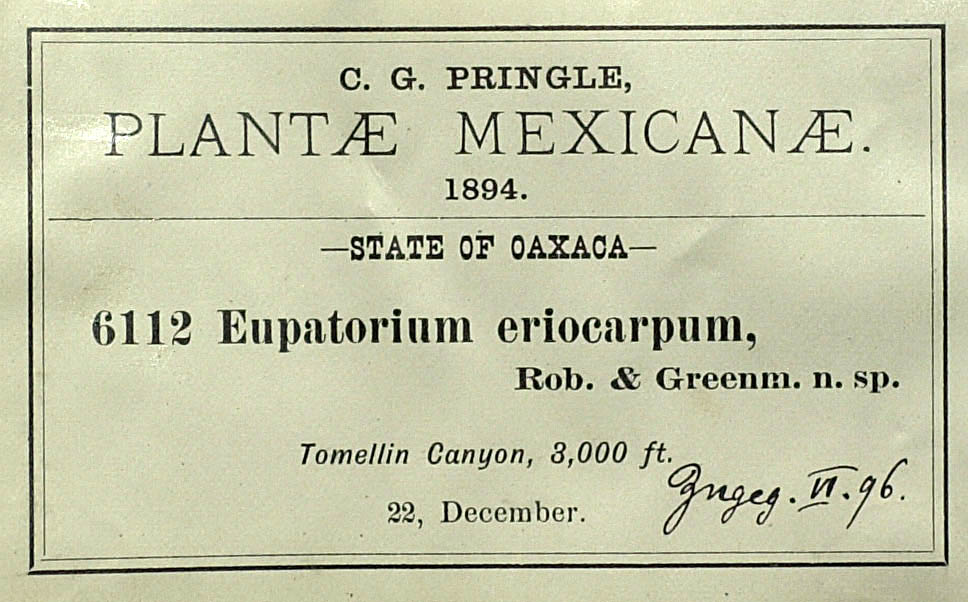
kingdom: Plantae
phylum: Tracheophyta
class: Magnoliopsida
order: Asterales
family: Asteraceae
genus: Kyrsteniopsis
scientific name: Kyrsteniopsis dibolii
